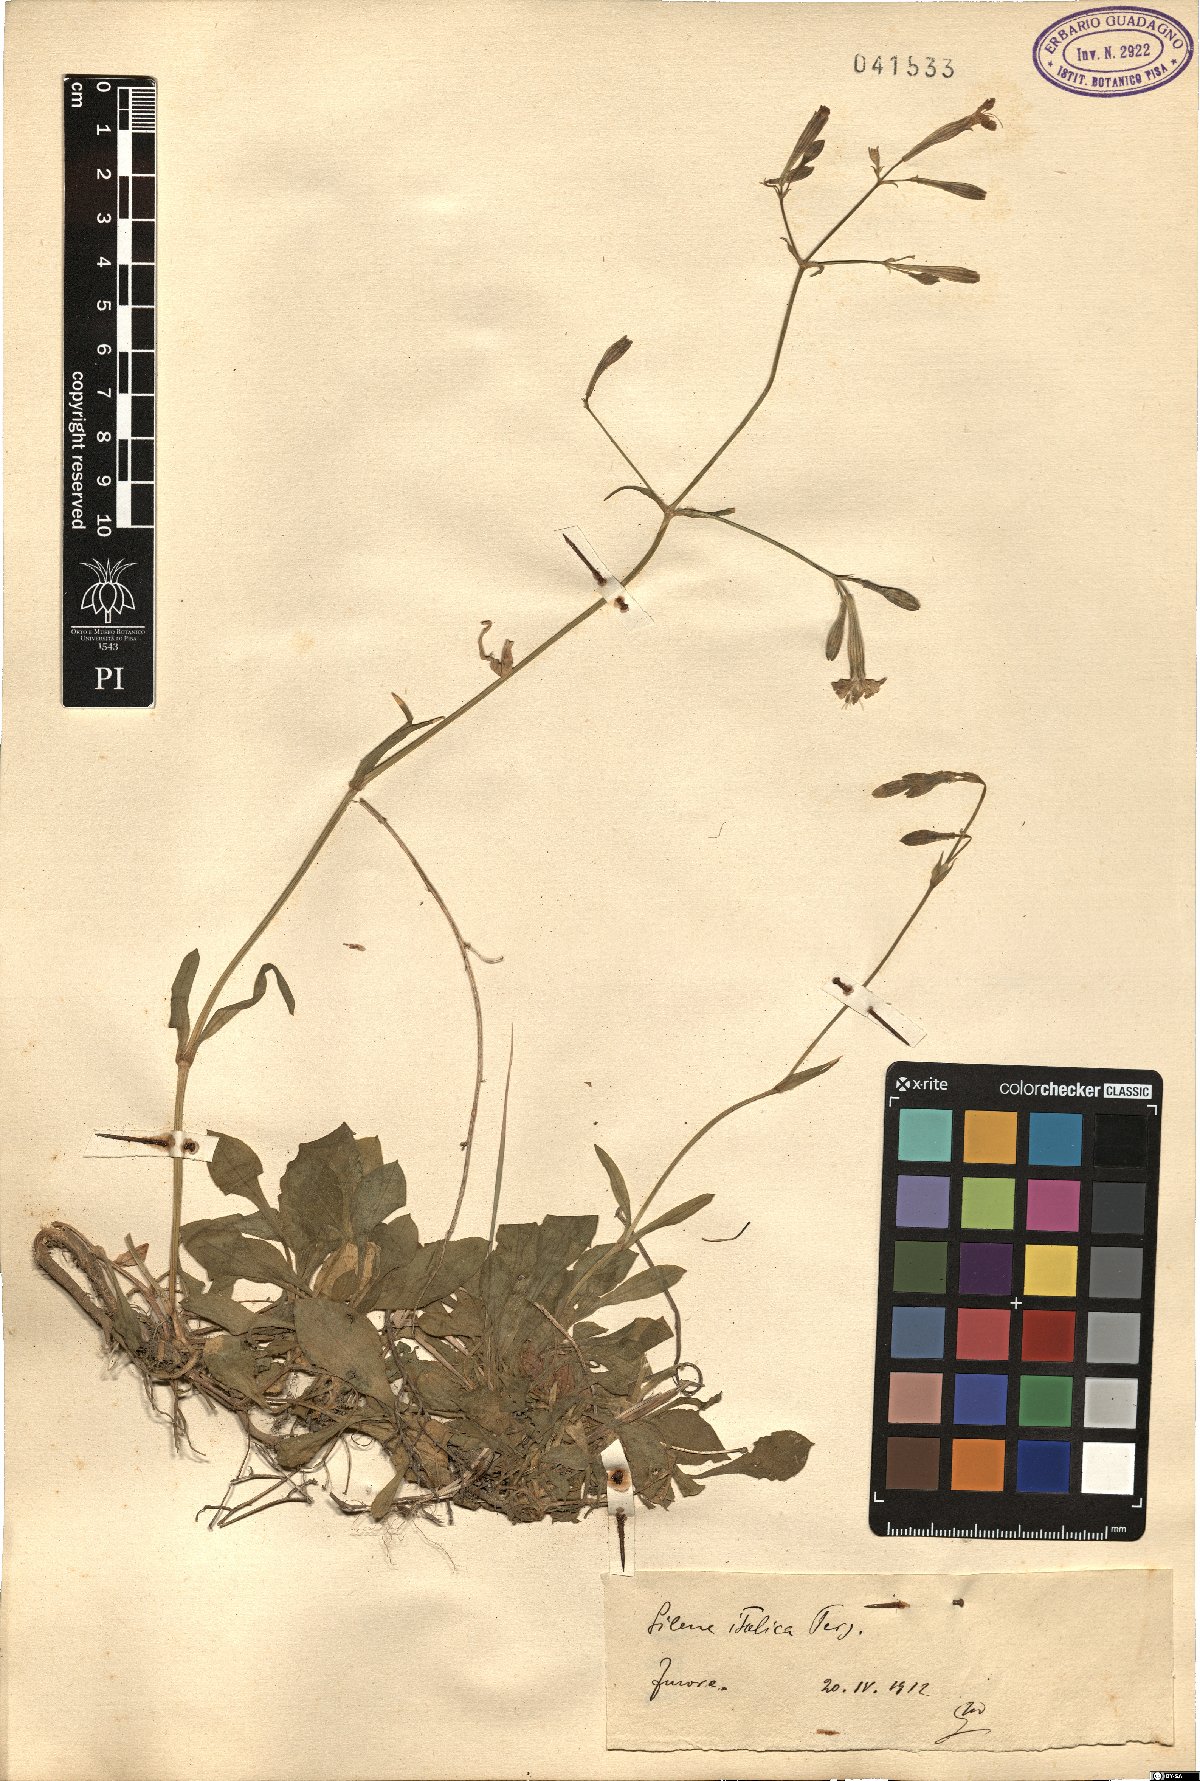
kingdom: Plantae
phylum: Tracheophyta
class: Magnoliopsida
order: Caryophyllales
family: Caryophyllaceae
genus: Silene
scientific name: Silene italica
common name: Italian catchfly
